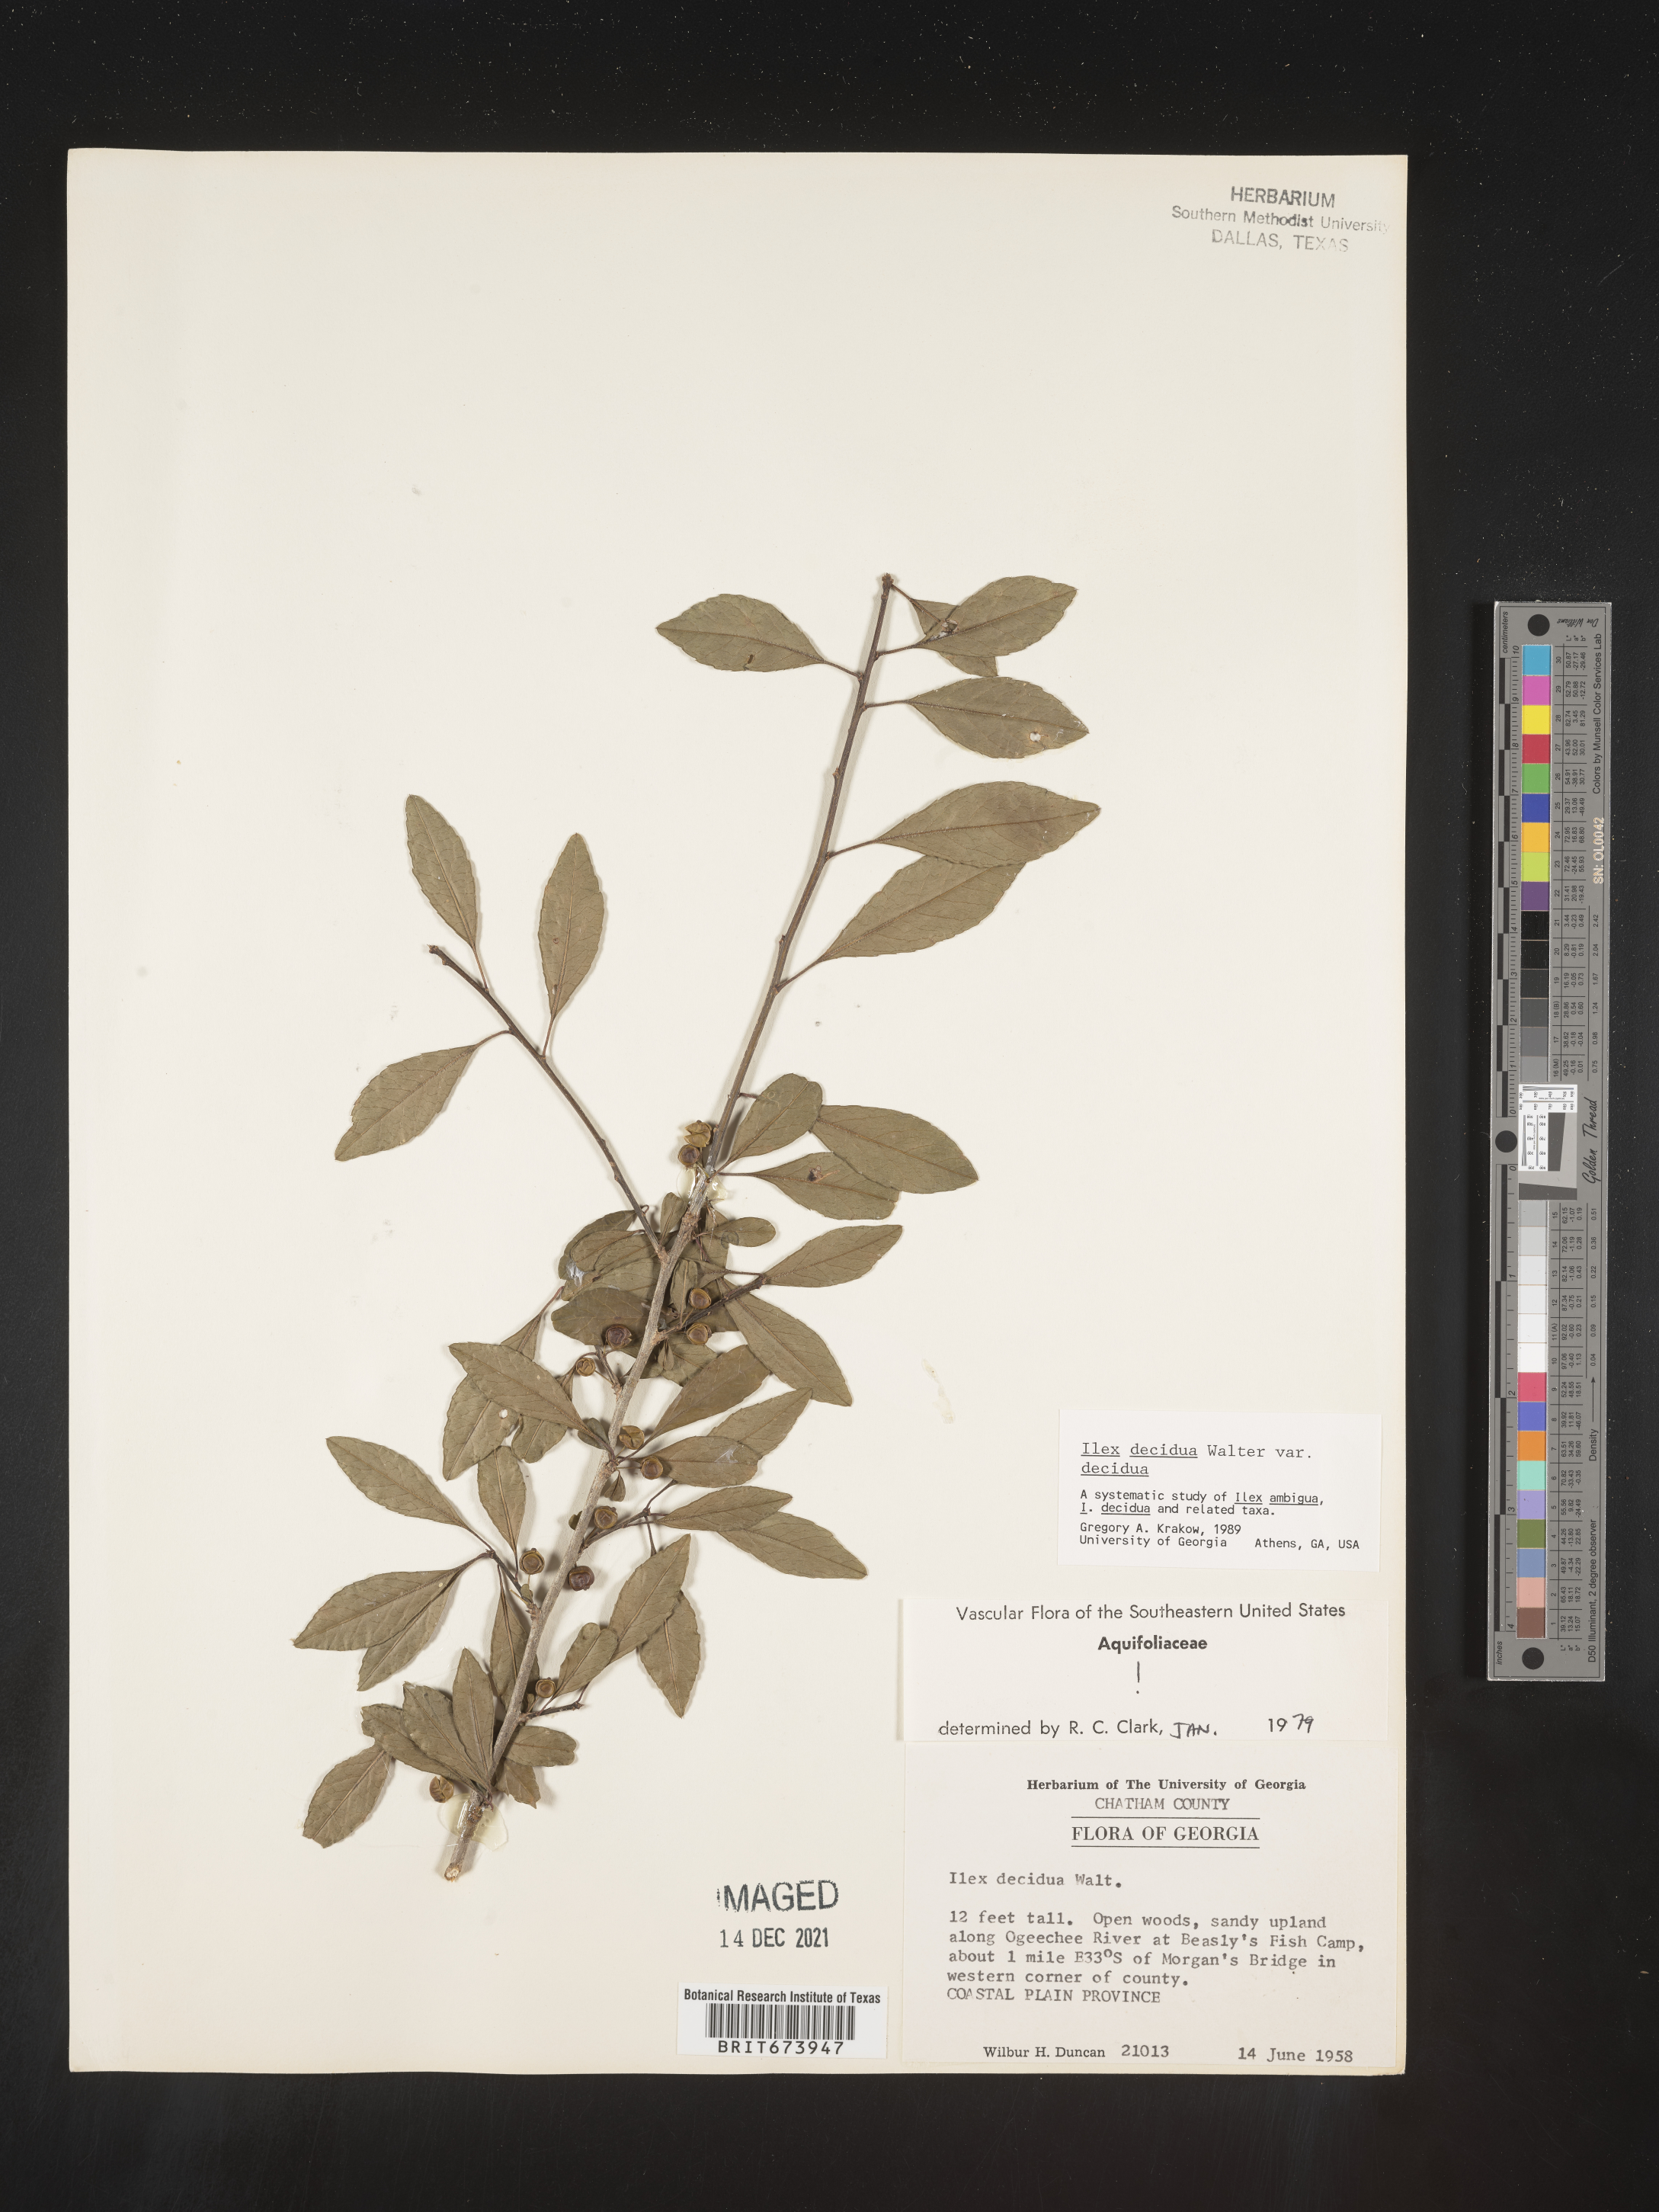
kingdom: Plantae
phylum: Tracheophyta
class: Magnoliopsida
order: Aquifoliales
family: Aquifoliaceae
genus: Ilex
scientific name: Ilex decidua
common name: Possum-haw
